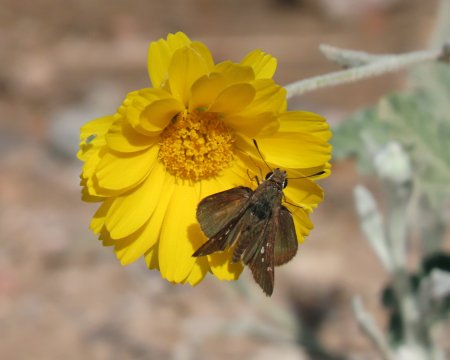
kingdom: Animalia
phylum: Arthropoda
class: Insecta
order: Lepidoptera
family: Hesperiidae
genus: Lerodea
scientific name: Lerodea eufala
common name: Eufala Skipper
